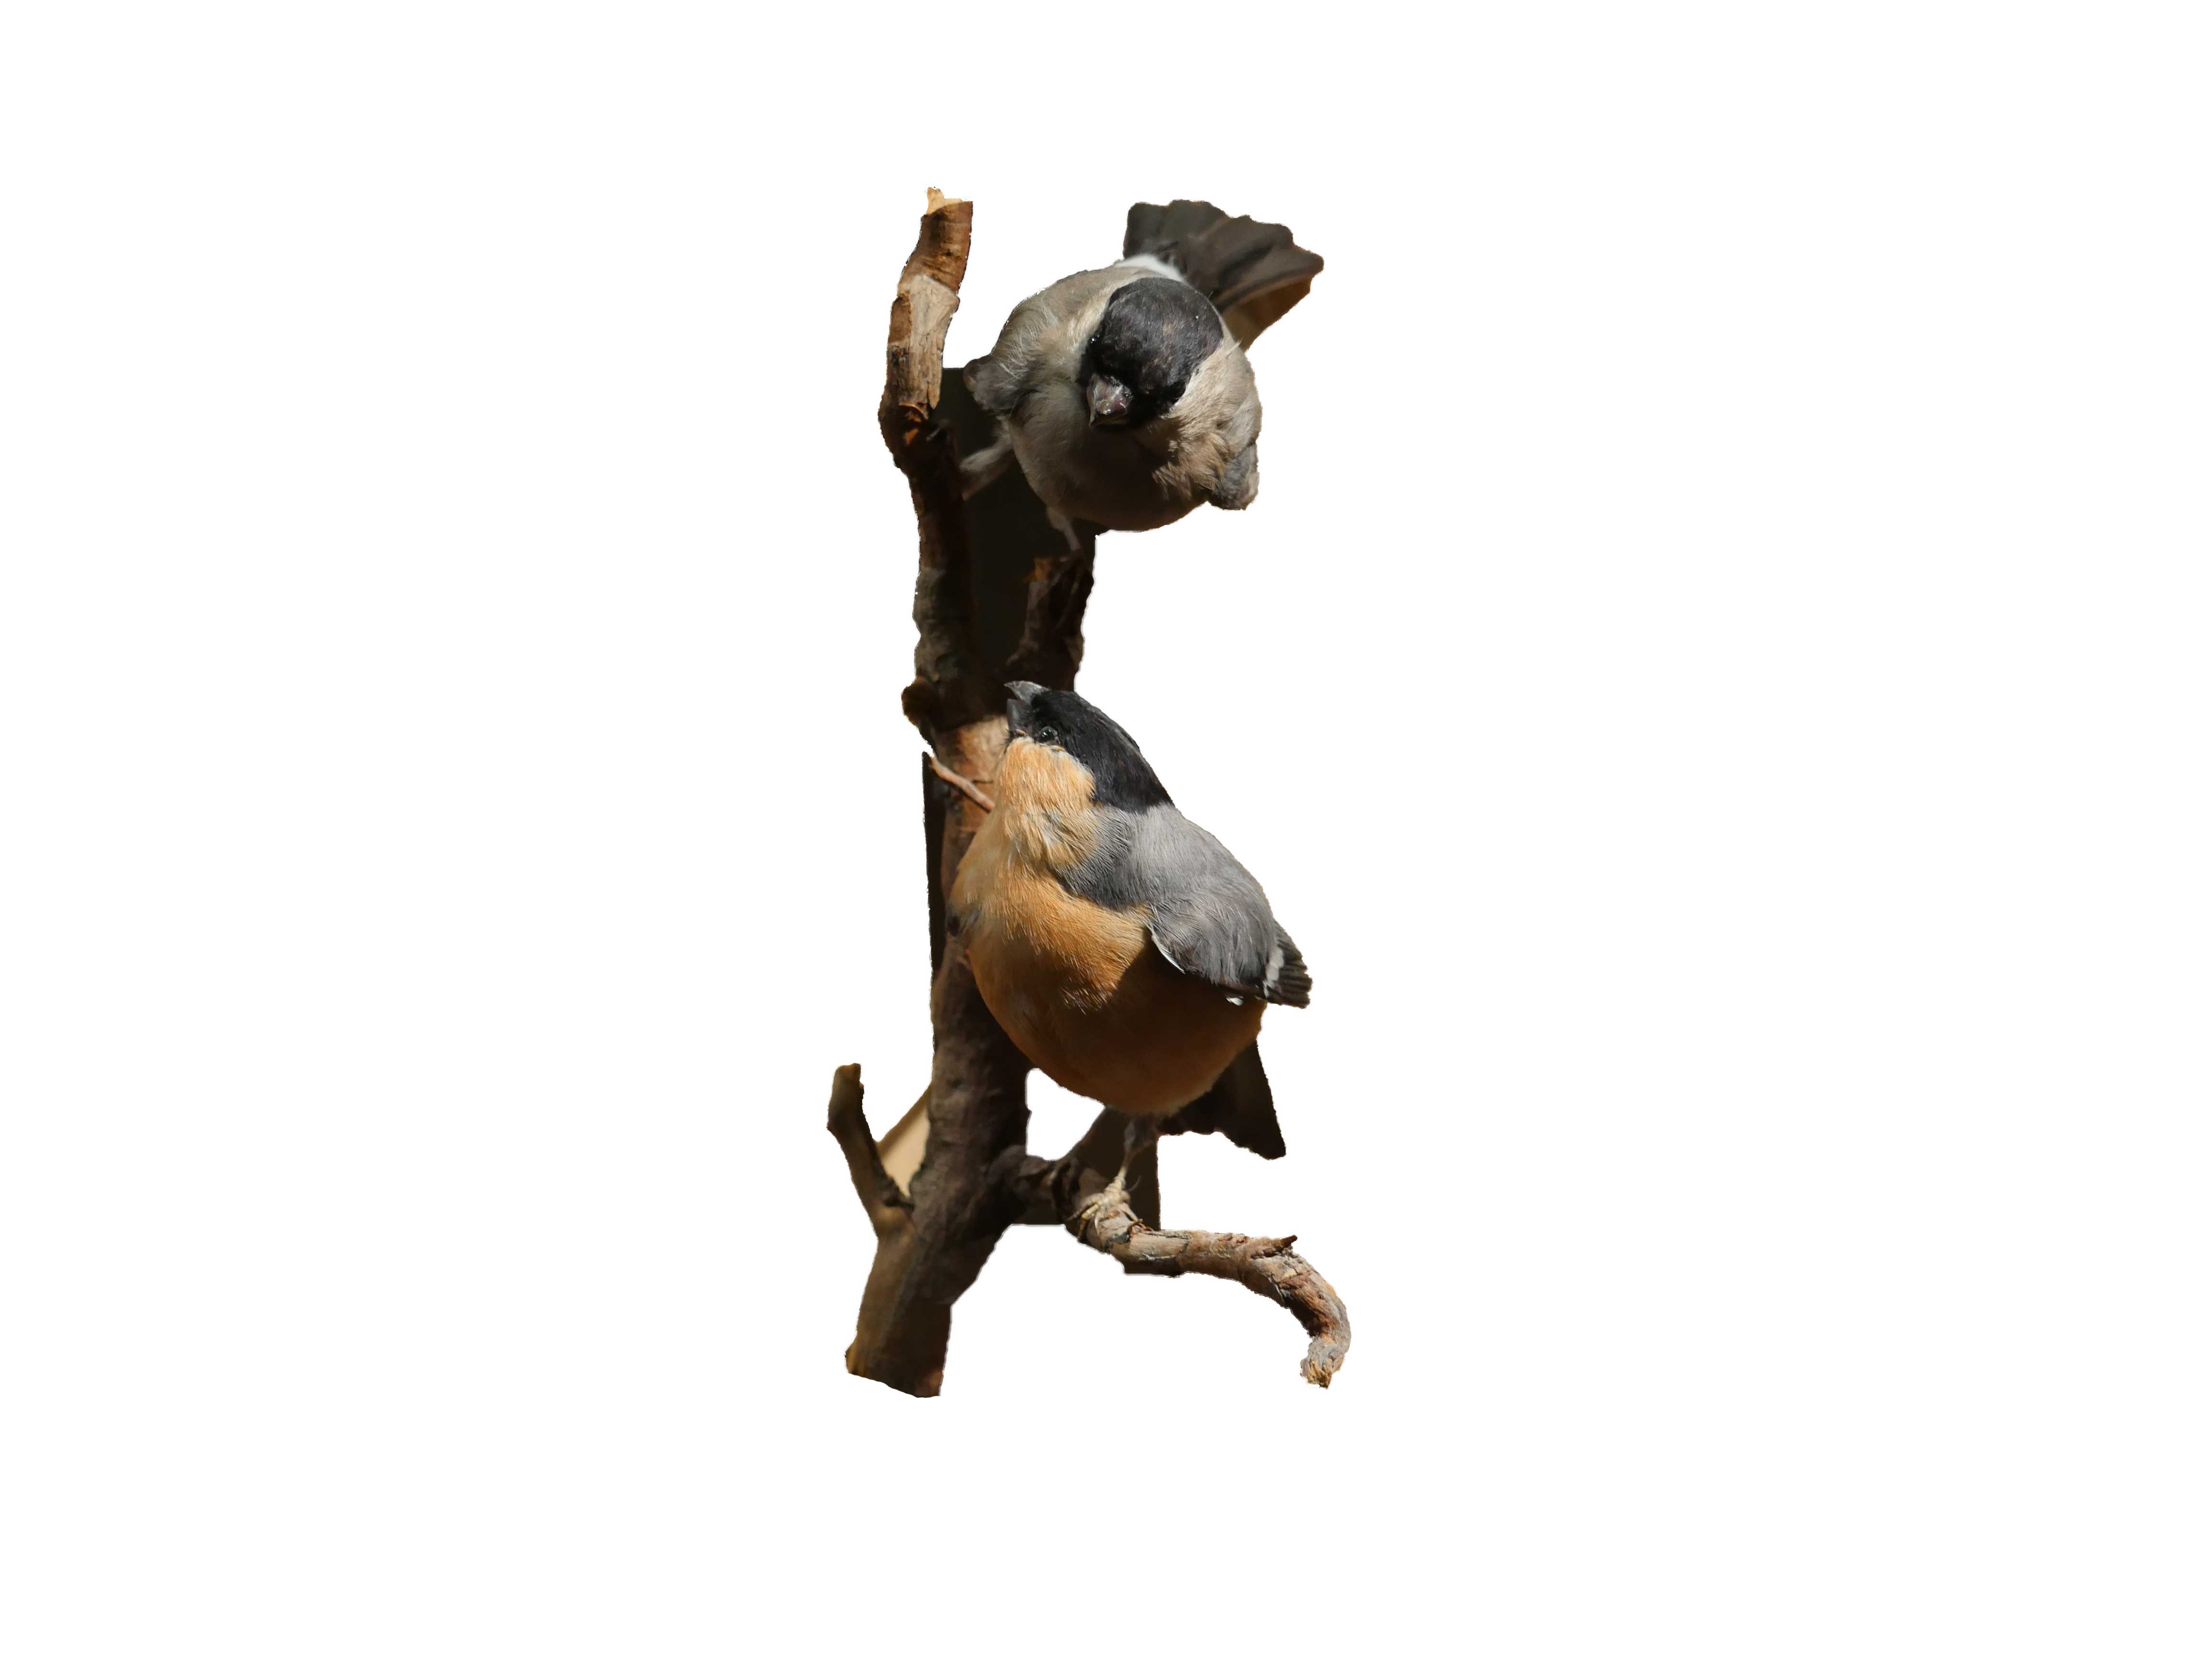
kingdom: Animalia
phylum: Chordata
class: Aves
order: Passeriformes
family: Fringillidae
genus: Pyrrhula
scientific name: Pyrrhula pyrrhula
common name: Eurasian bullfinch
